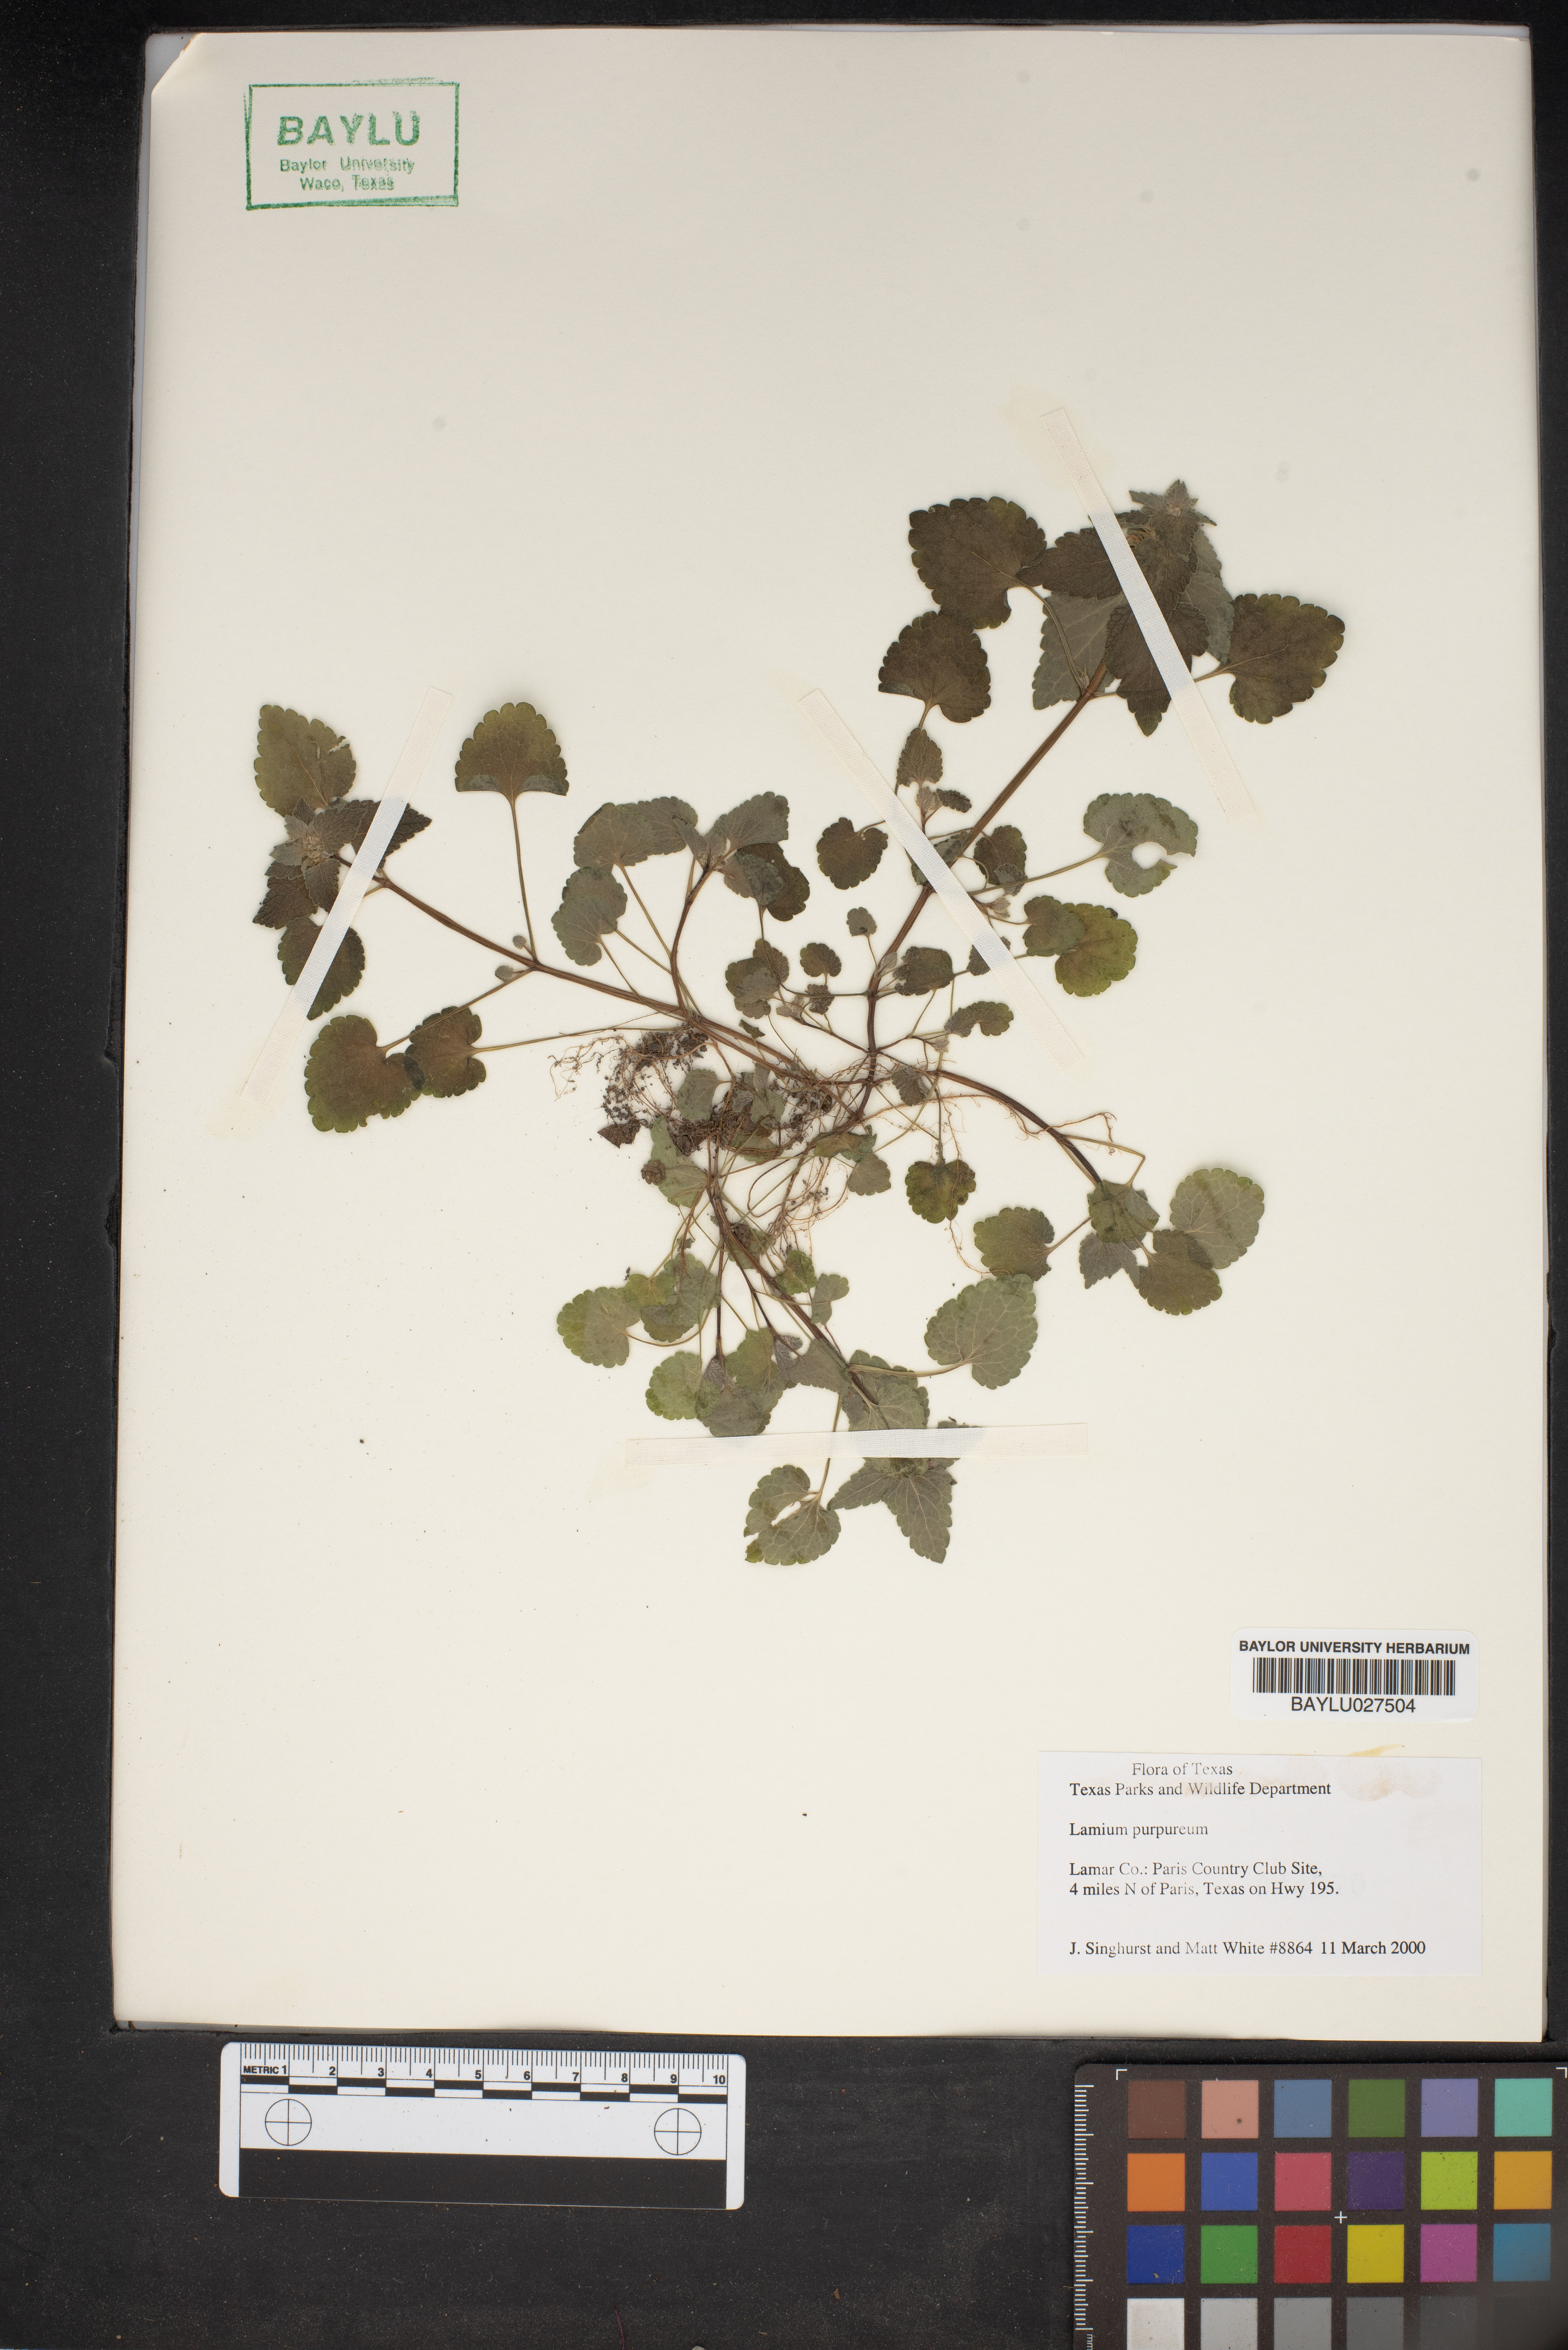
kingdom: Plantae
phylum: Tracheophyta
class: Magnoliopsida
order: Lamiales
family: Lamiaceae
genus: Lamium
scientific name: Lamium purpureum
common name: Red dead-nettle
